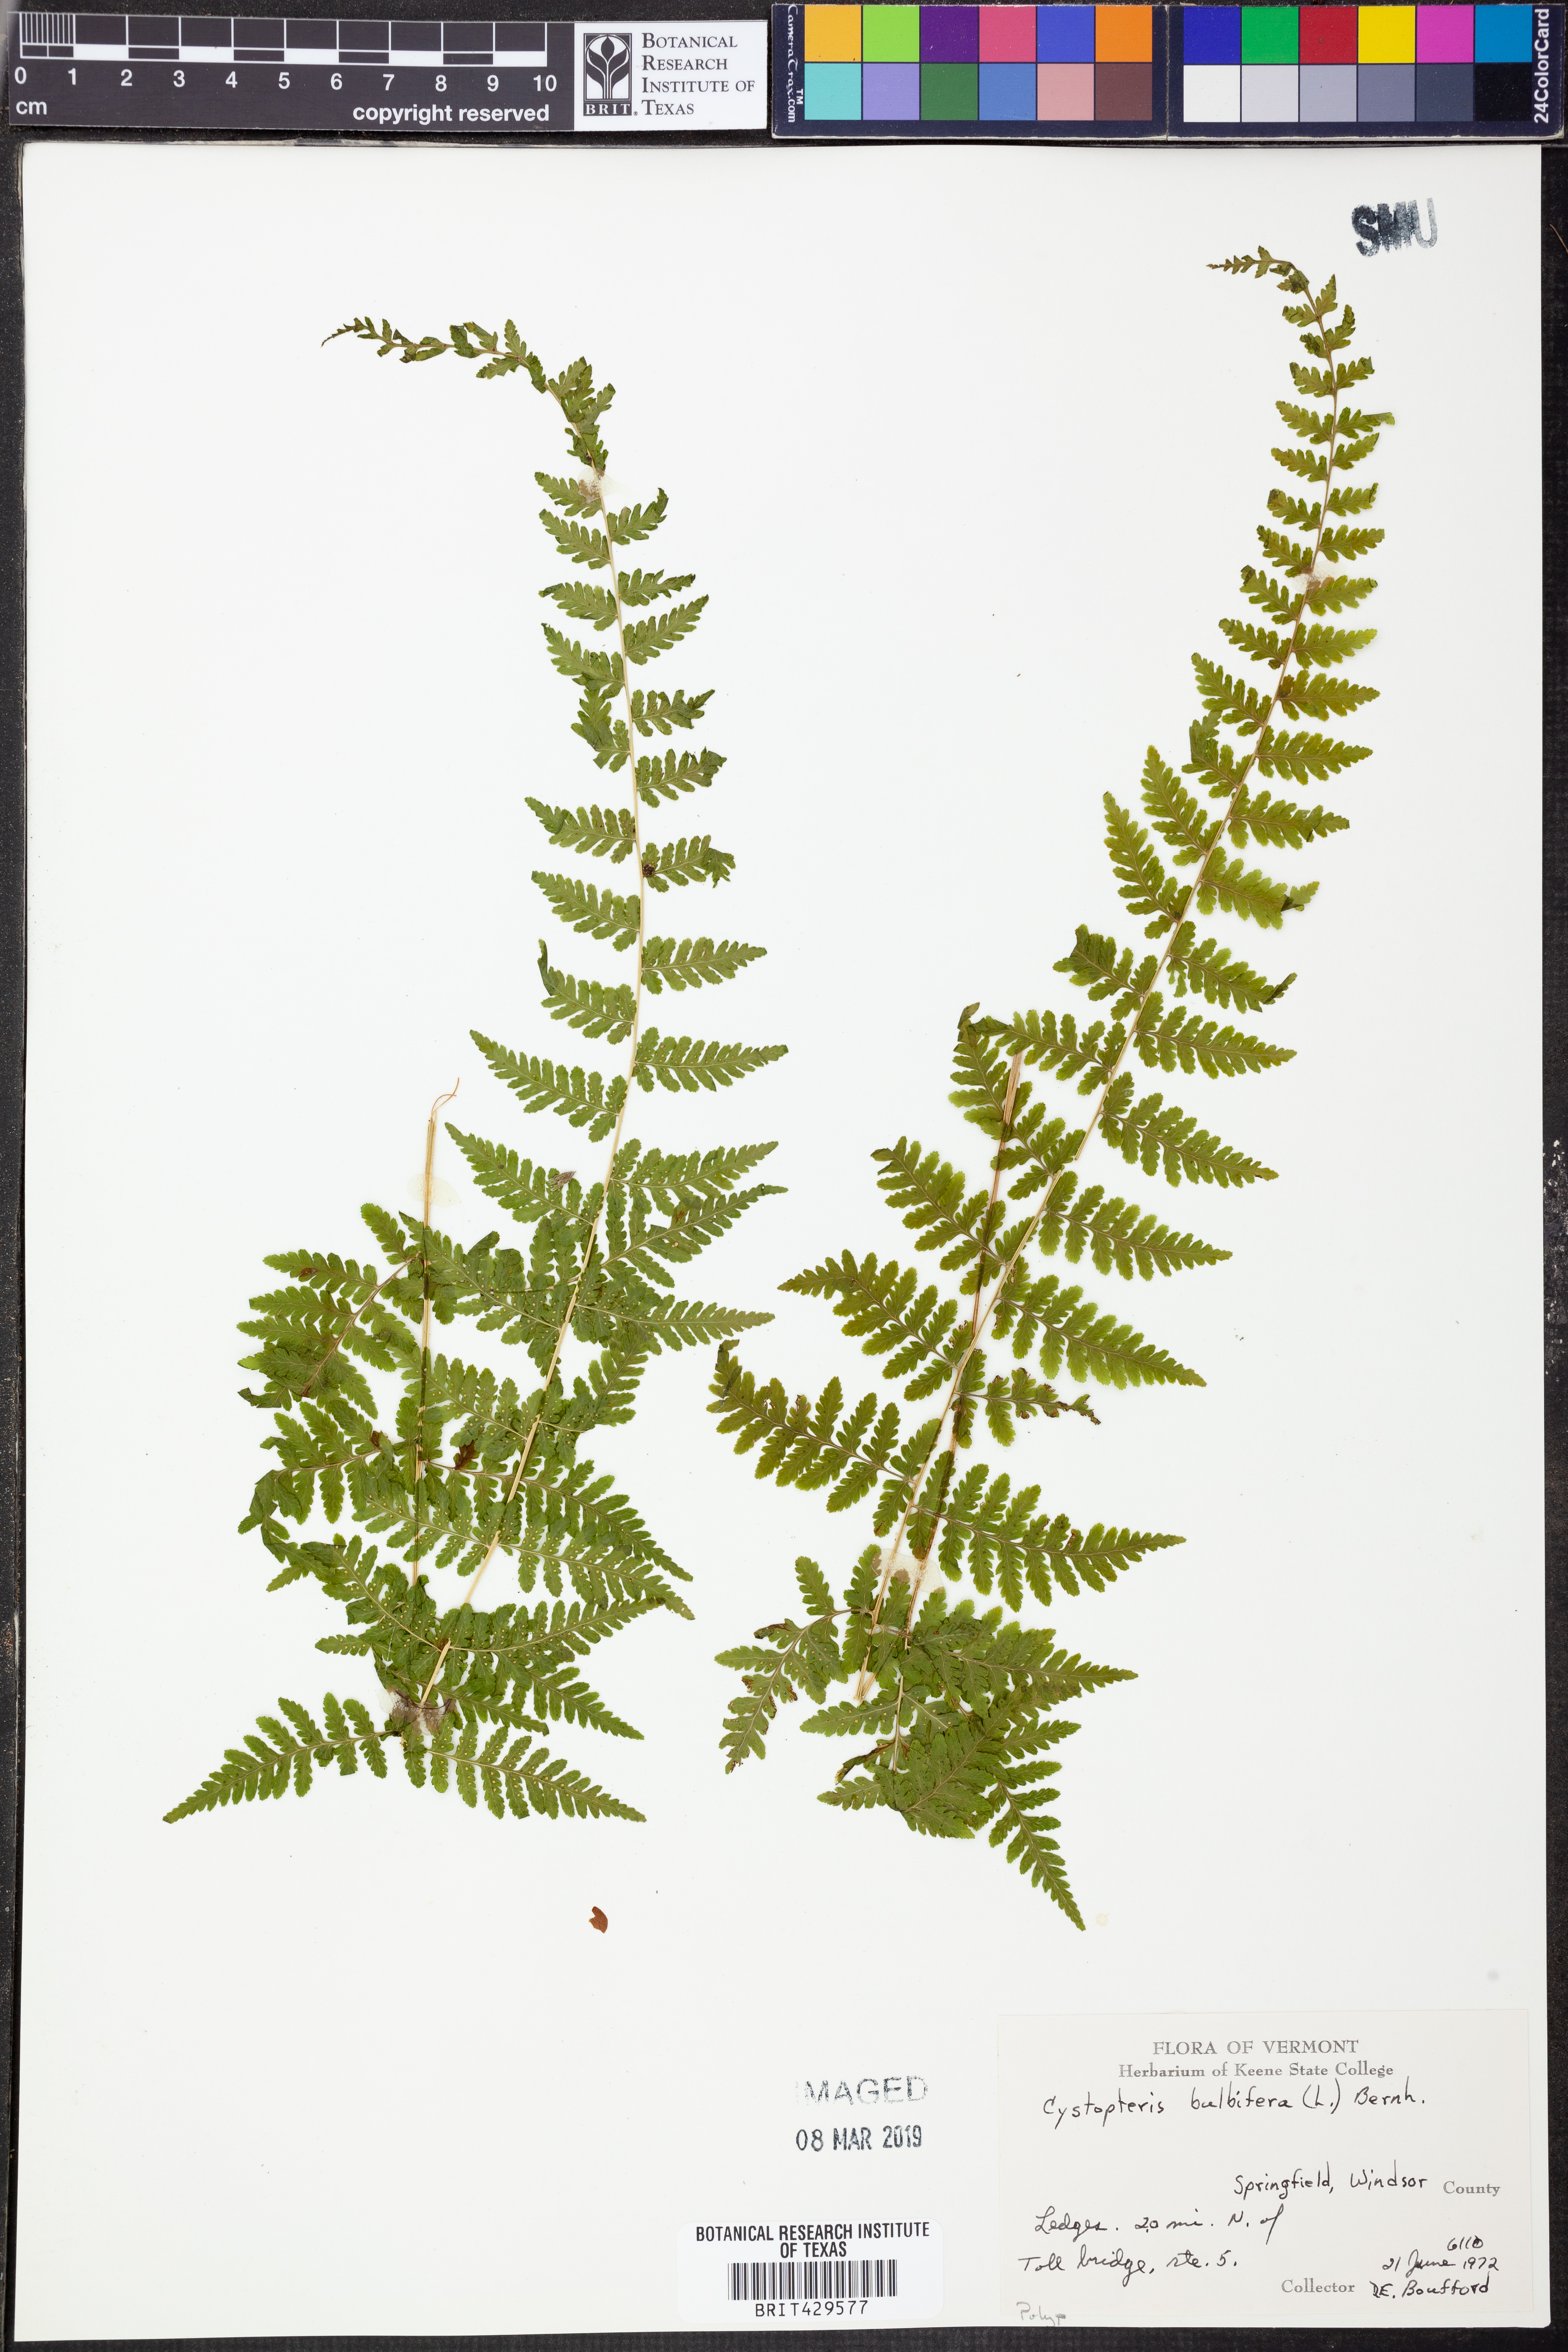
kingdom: Plantae
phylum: Tracheophyta
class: Polypodiopsida
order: Polypodiales
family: Cystopteridaceae
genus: Cystopteris
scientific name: Cystopteris bulbifera
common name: Bulblet bladder fern
